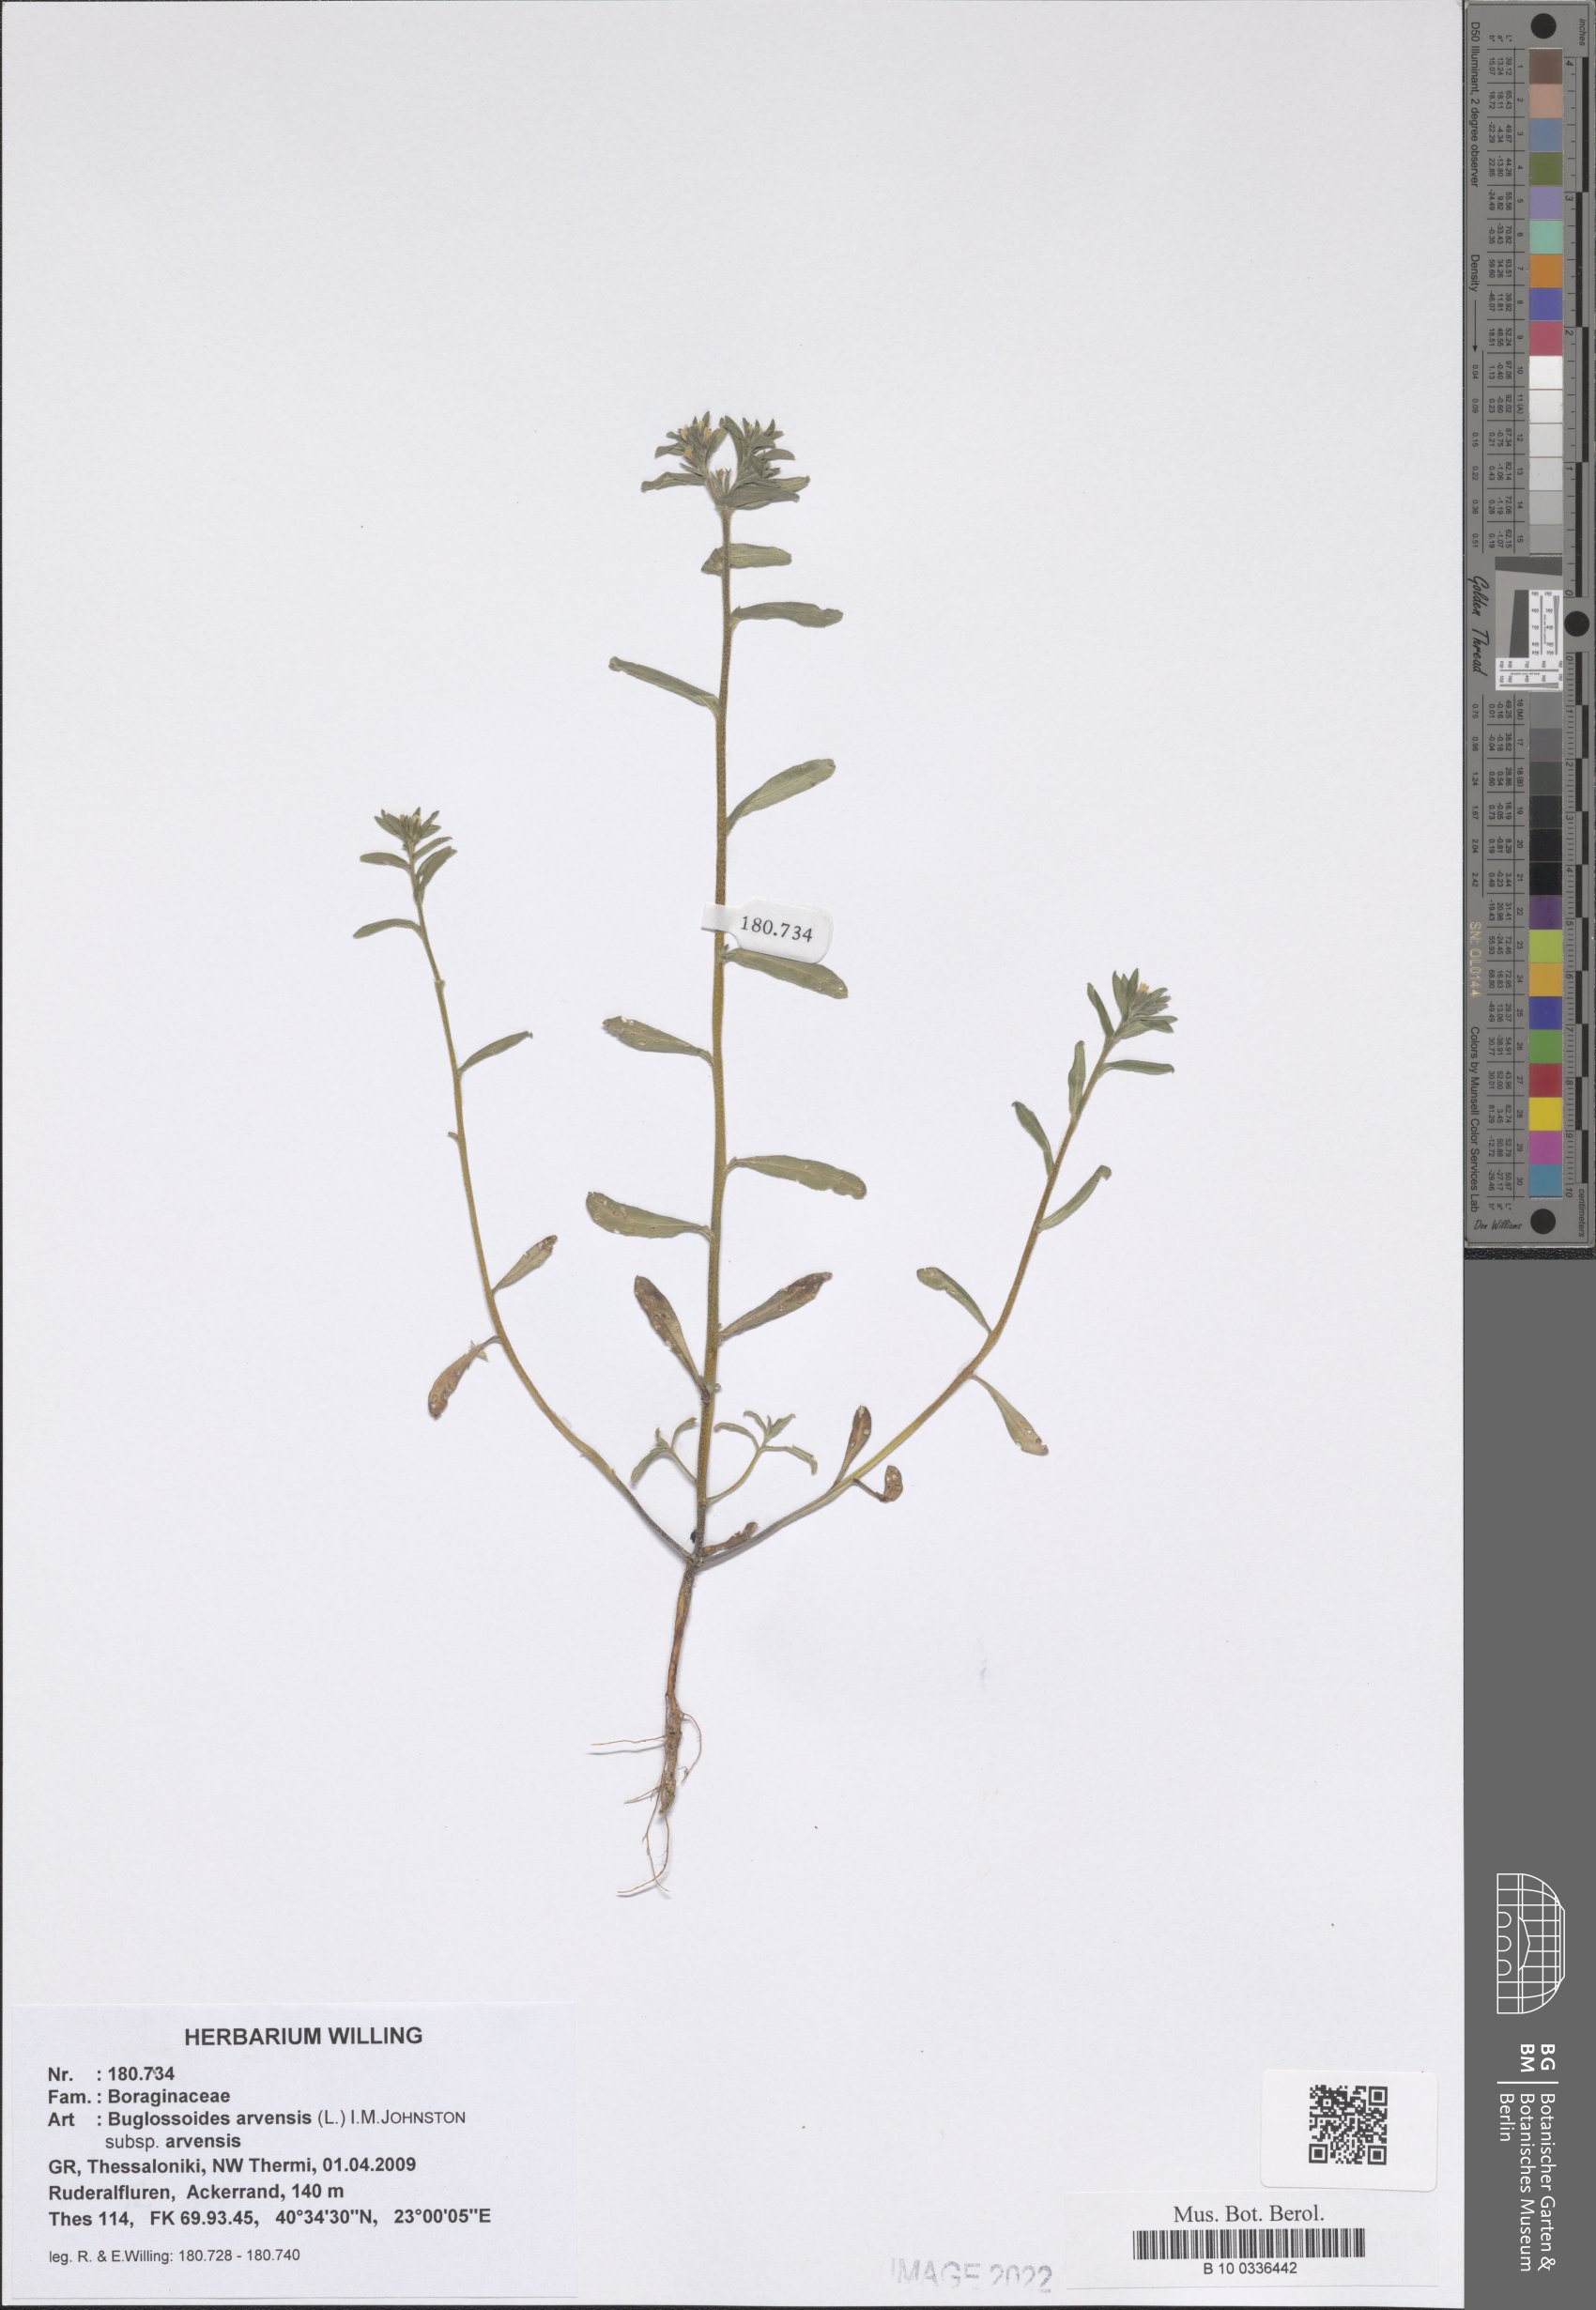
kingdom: Plantae
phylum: Tracheophyta
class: Magnoliopsida
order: Boraginales
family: Boraginaceae
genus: Buglossoides
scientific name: Buglossoides arvensis
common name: Corn gromwell
